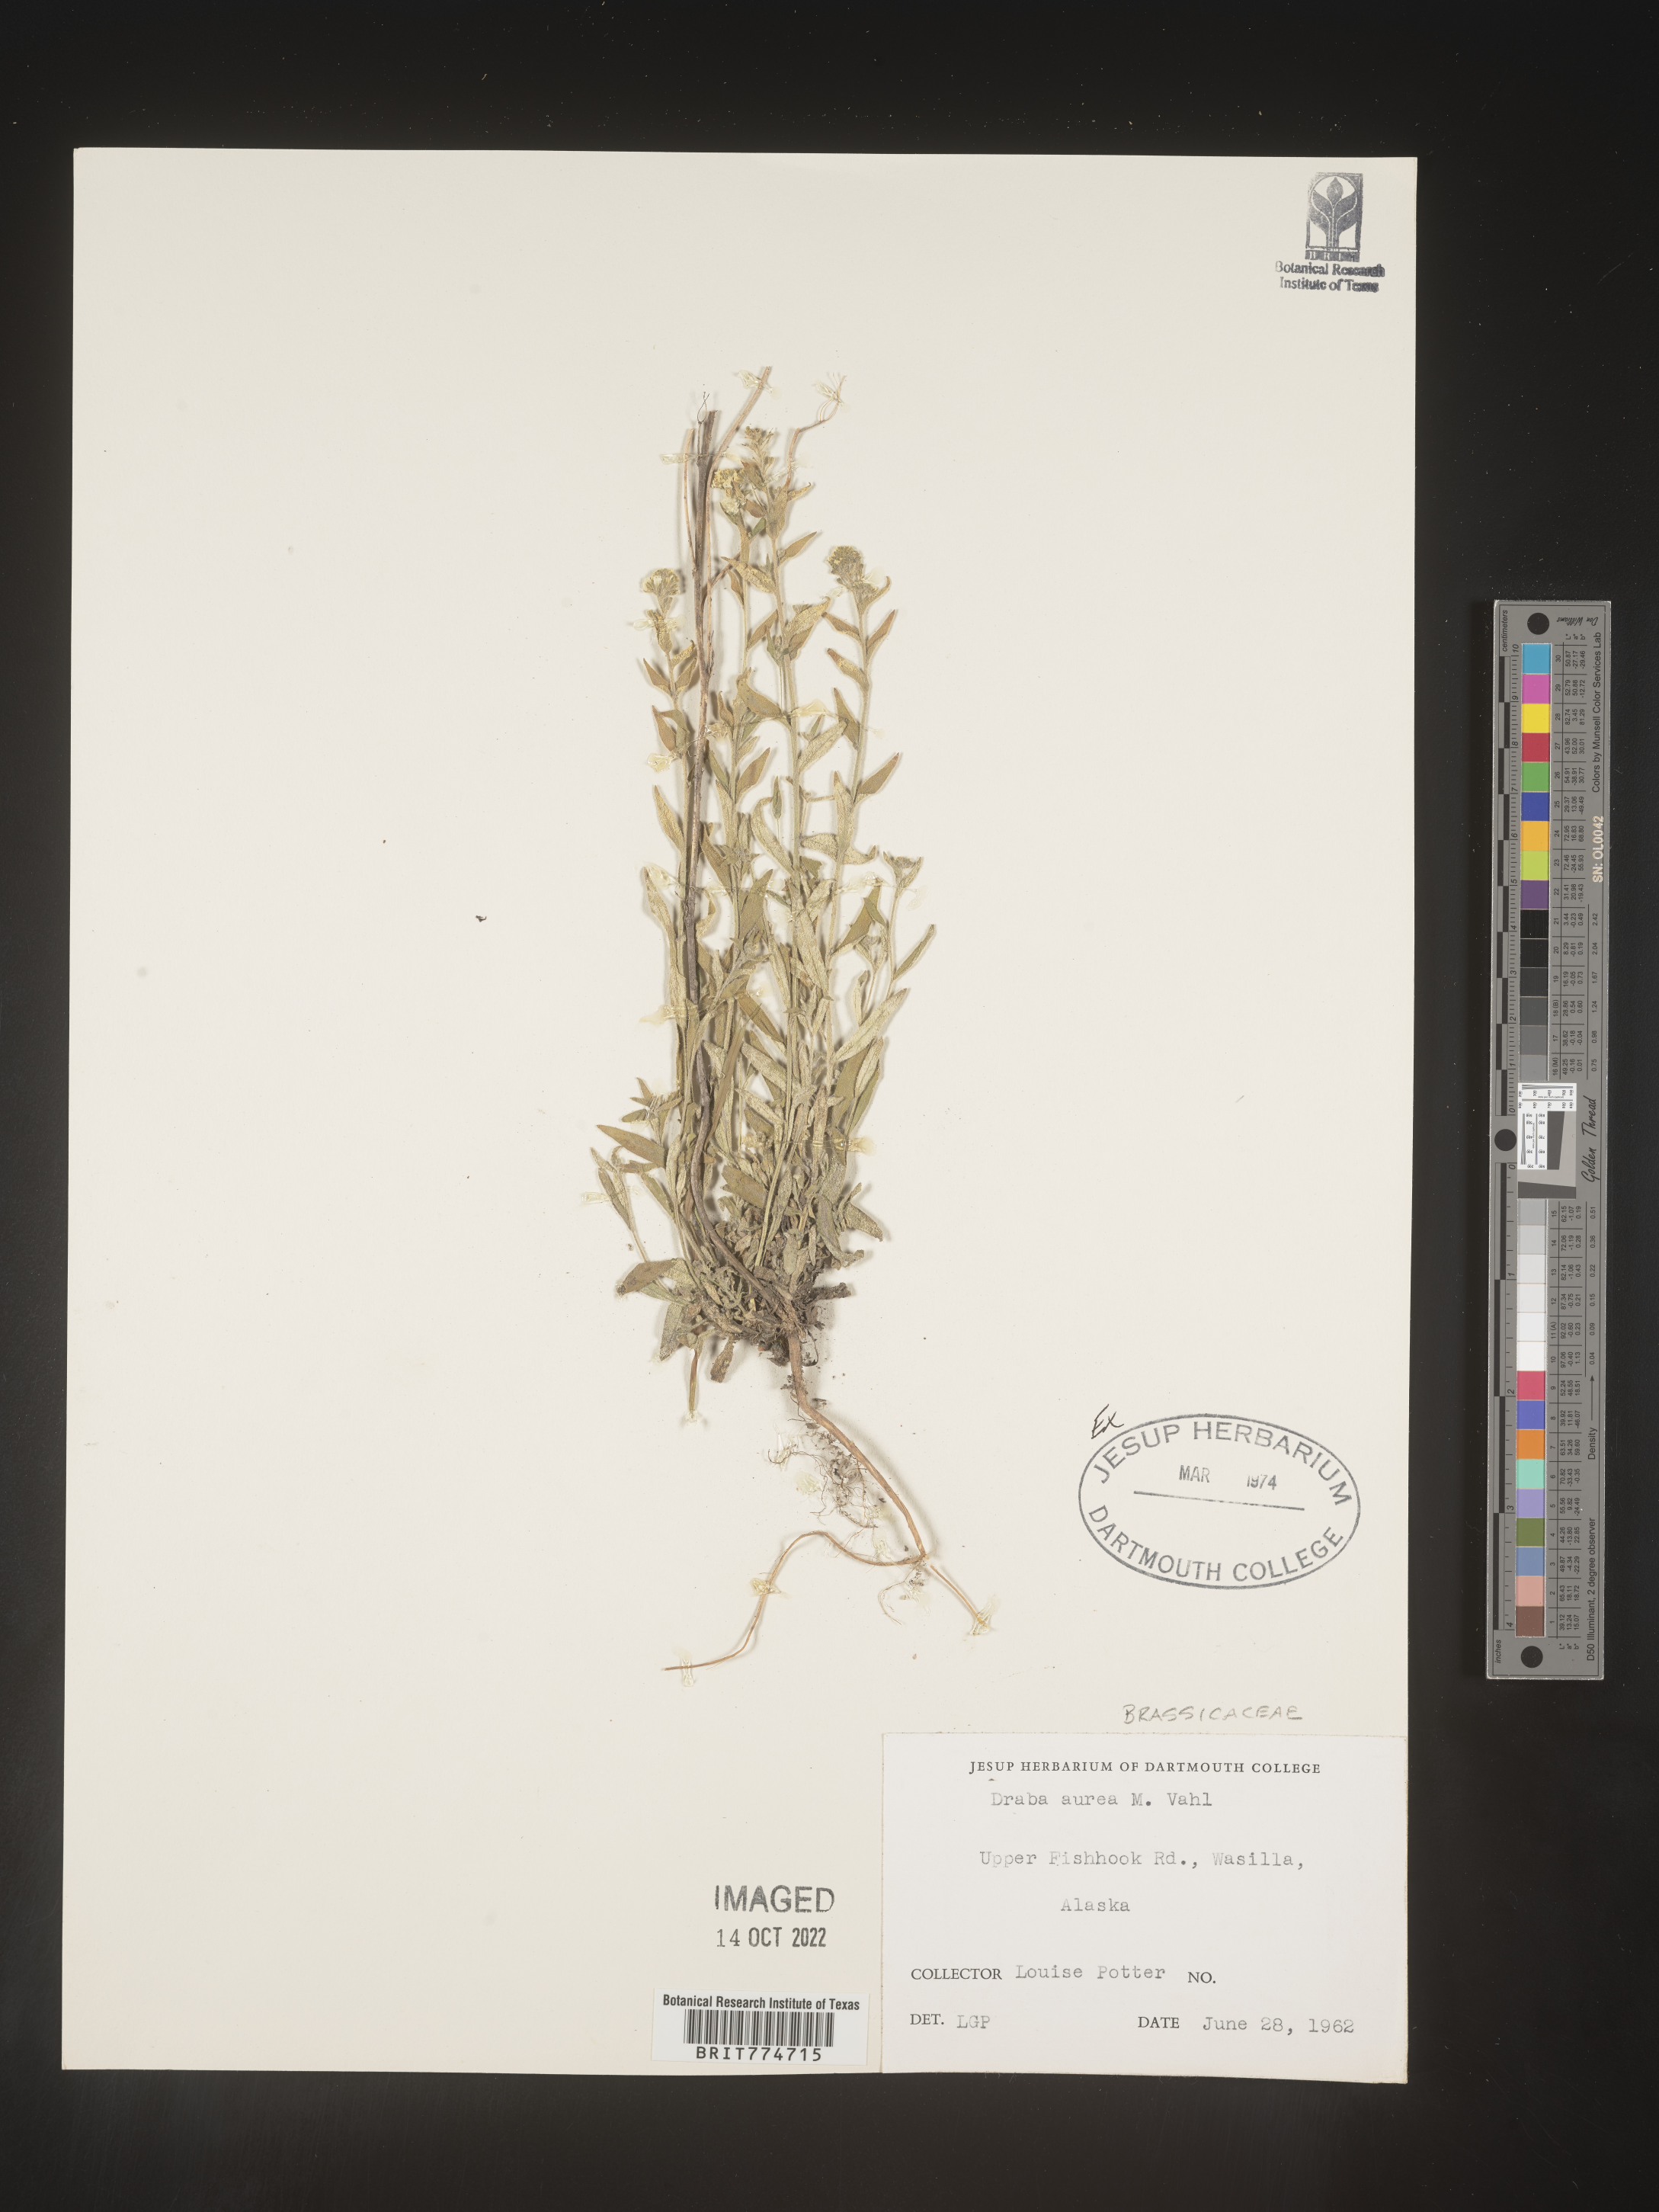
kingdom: Plantae
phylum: Tracheophyta
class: Magnoliopsida
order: Brassicales
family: Brassicaceae
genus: Draba
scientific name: Draba
